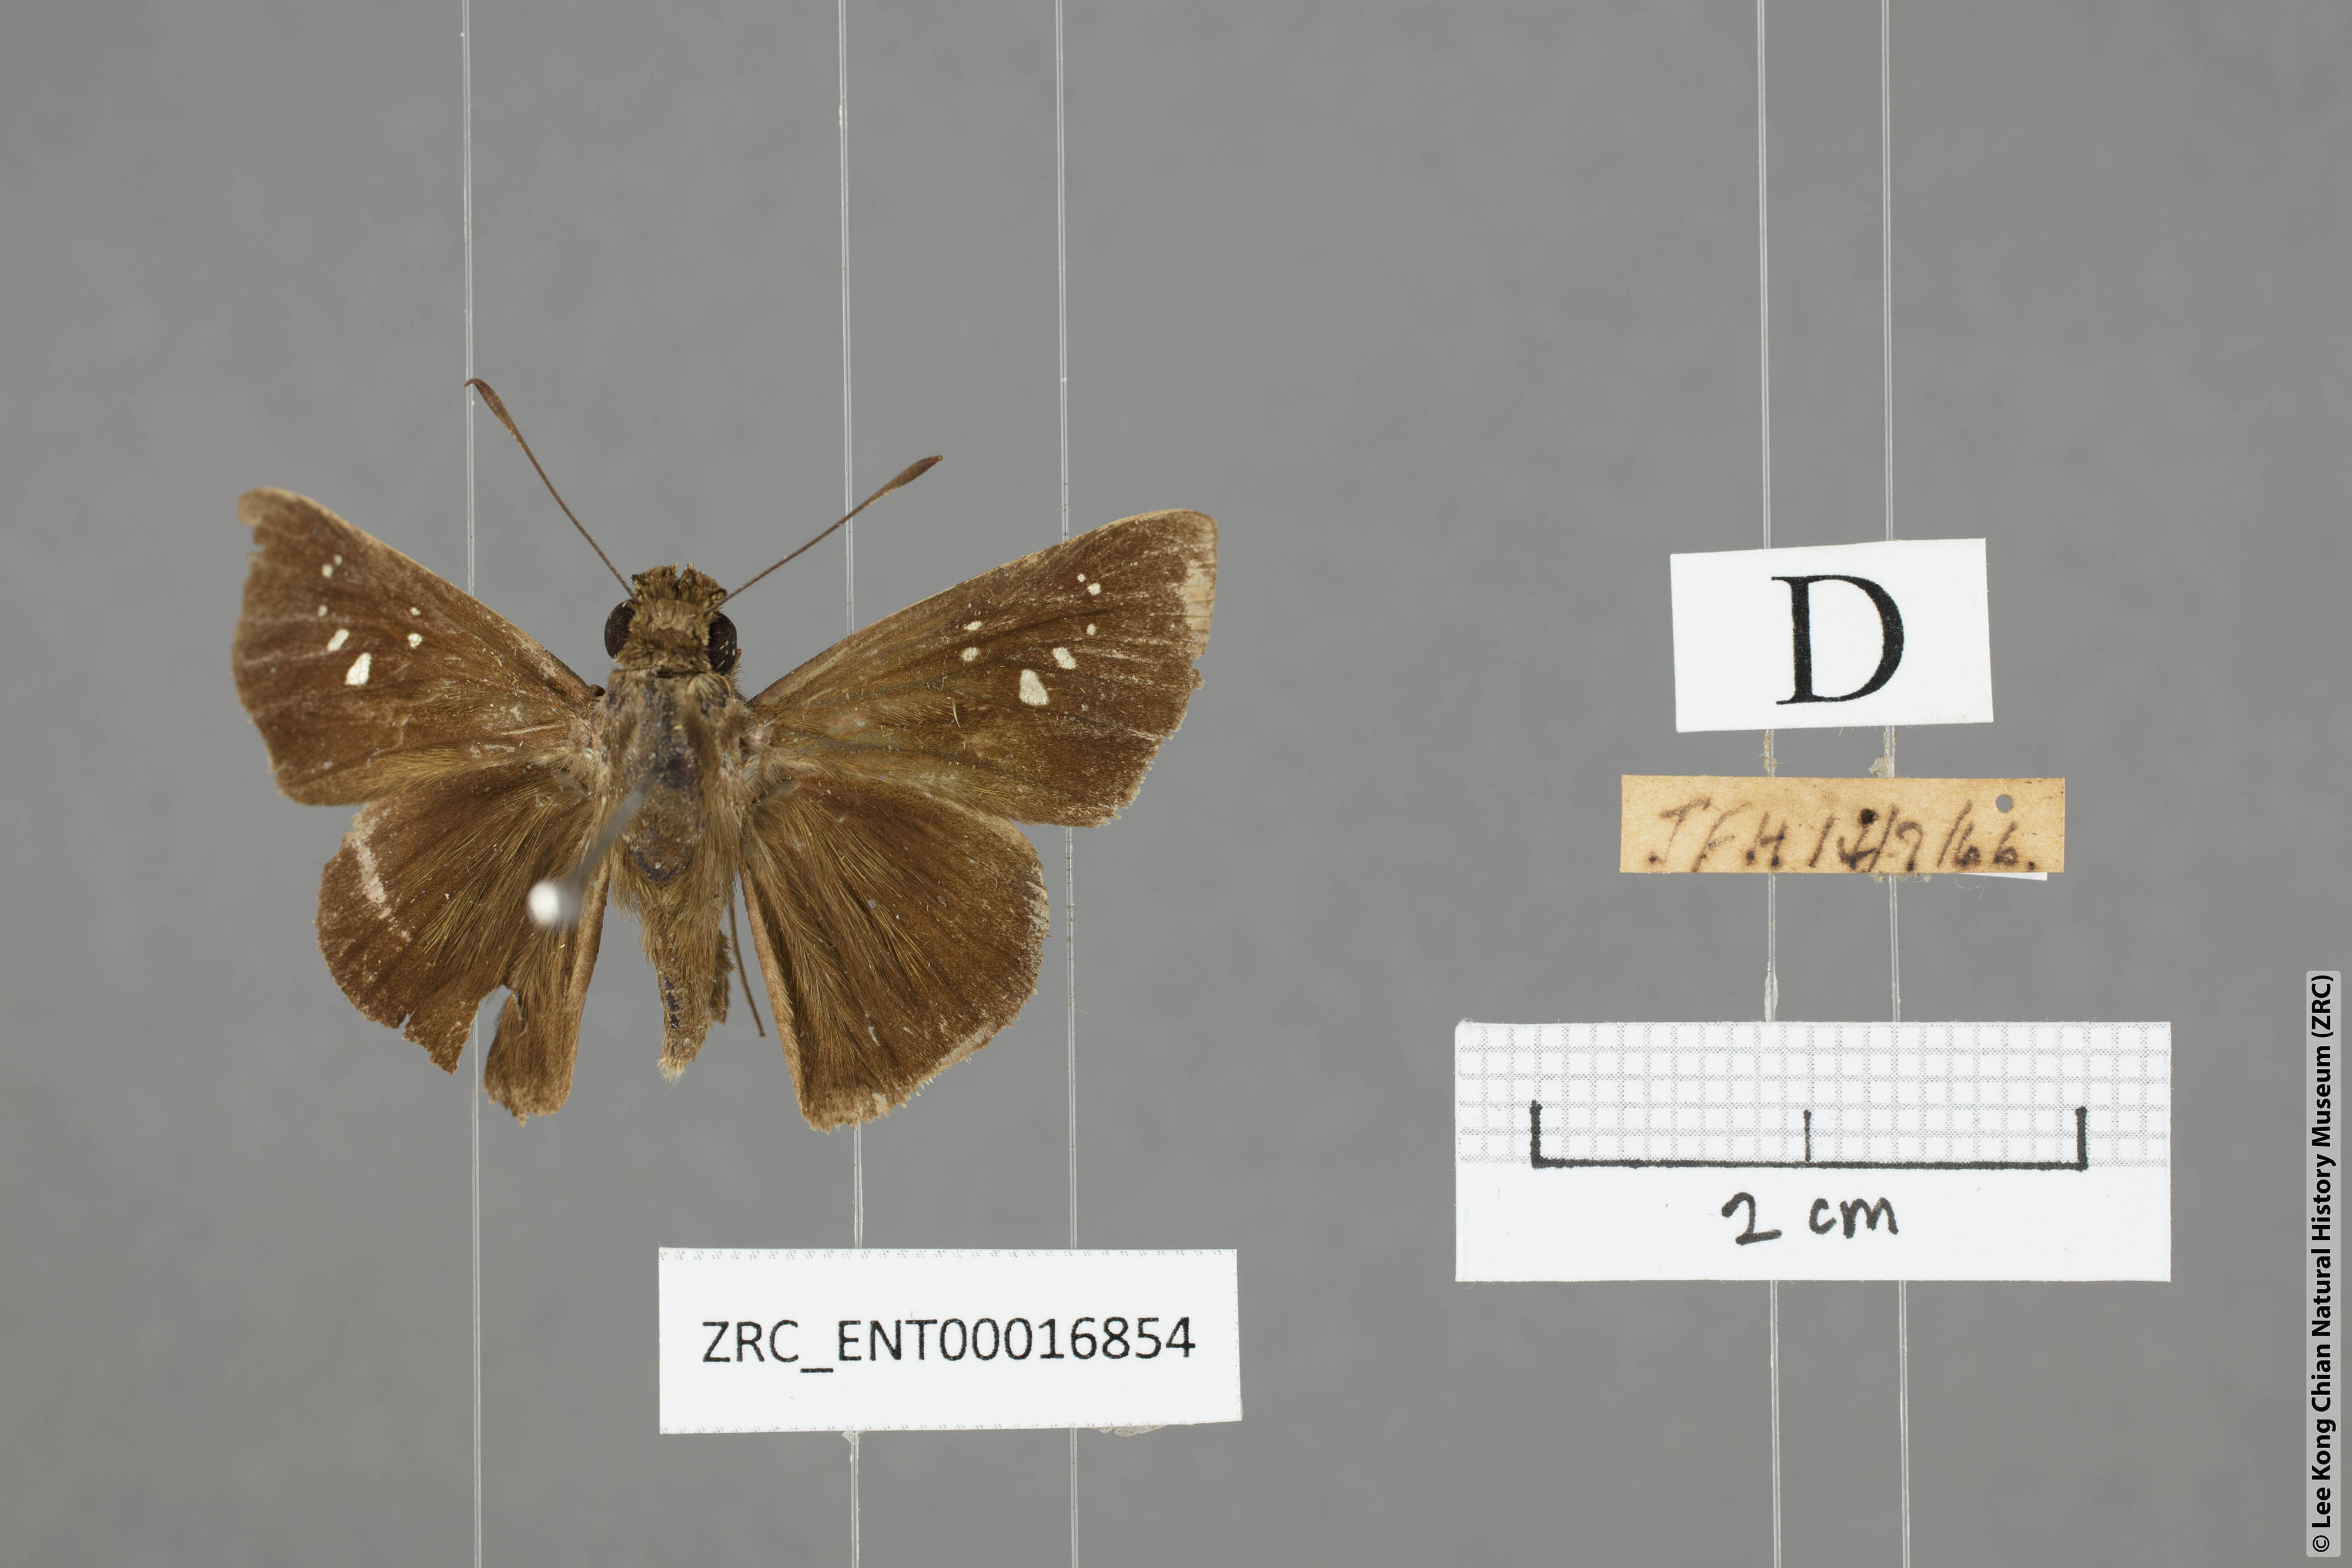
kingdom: Animalia
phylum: Arthropoda
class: Insecta
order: Lepidoptera
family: Hesperiidae
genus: Caltoris
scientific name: Caltoris sirius
